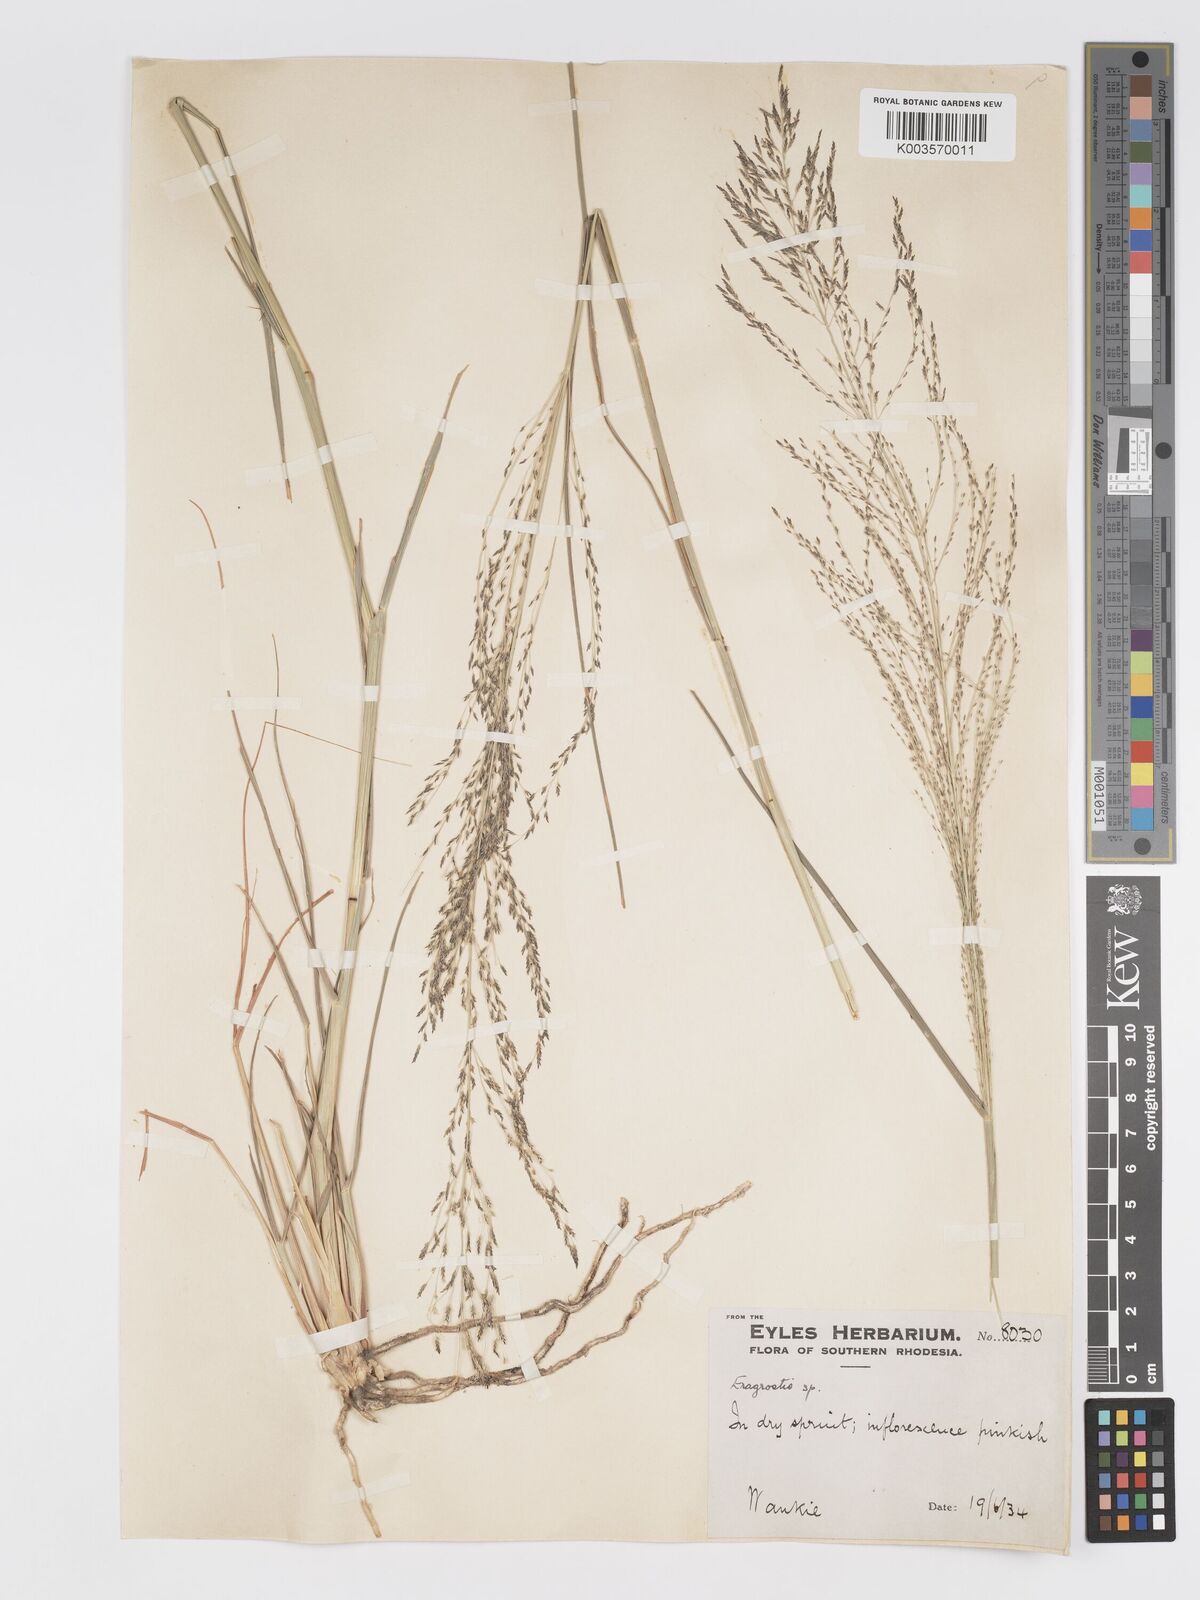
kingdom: Plantae
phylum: Tracheophyta
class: Liliopsida
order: Poales
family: Poaceae
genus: Eragrostis
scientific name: Eragrostis rotifer
